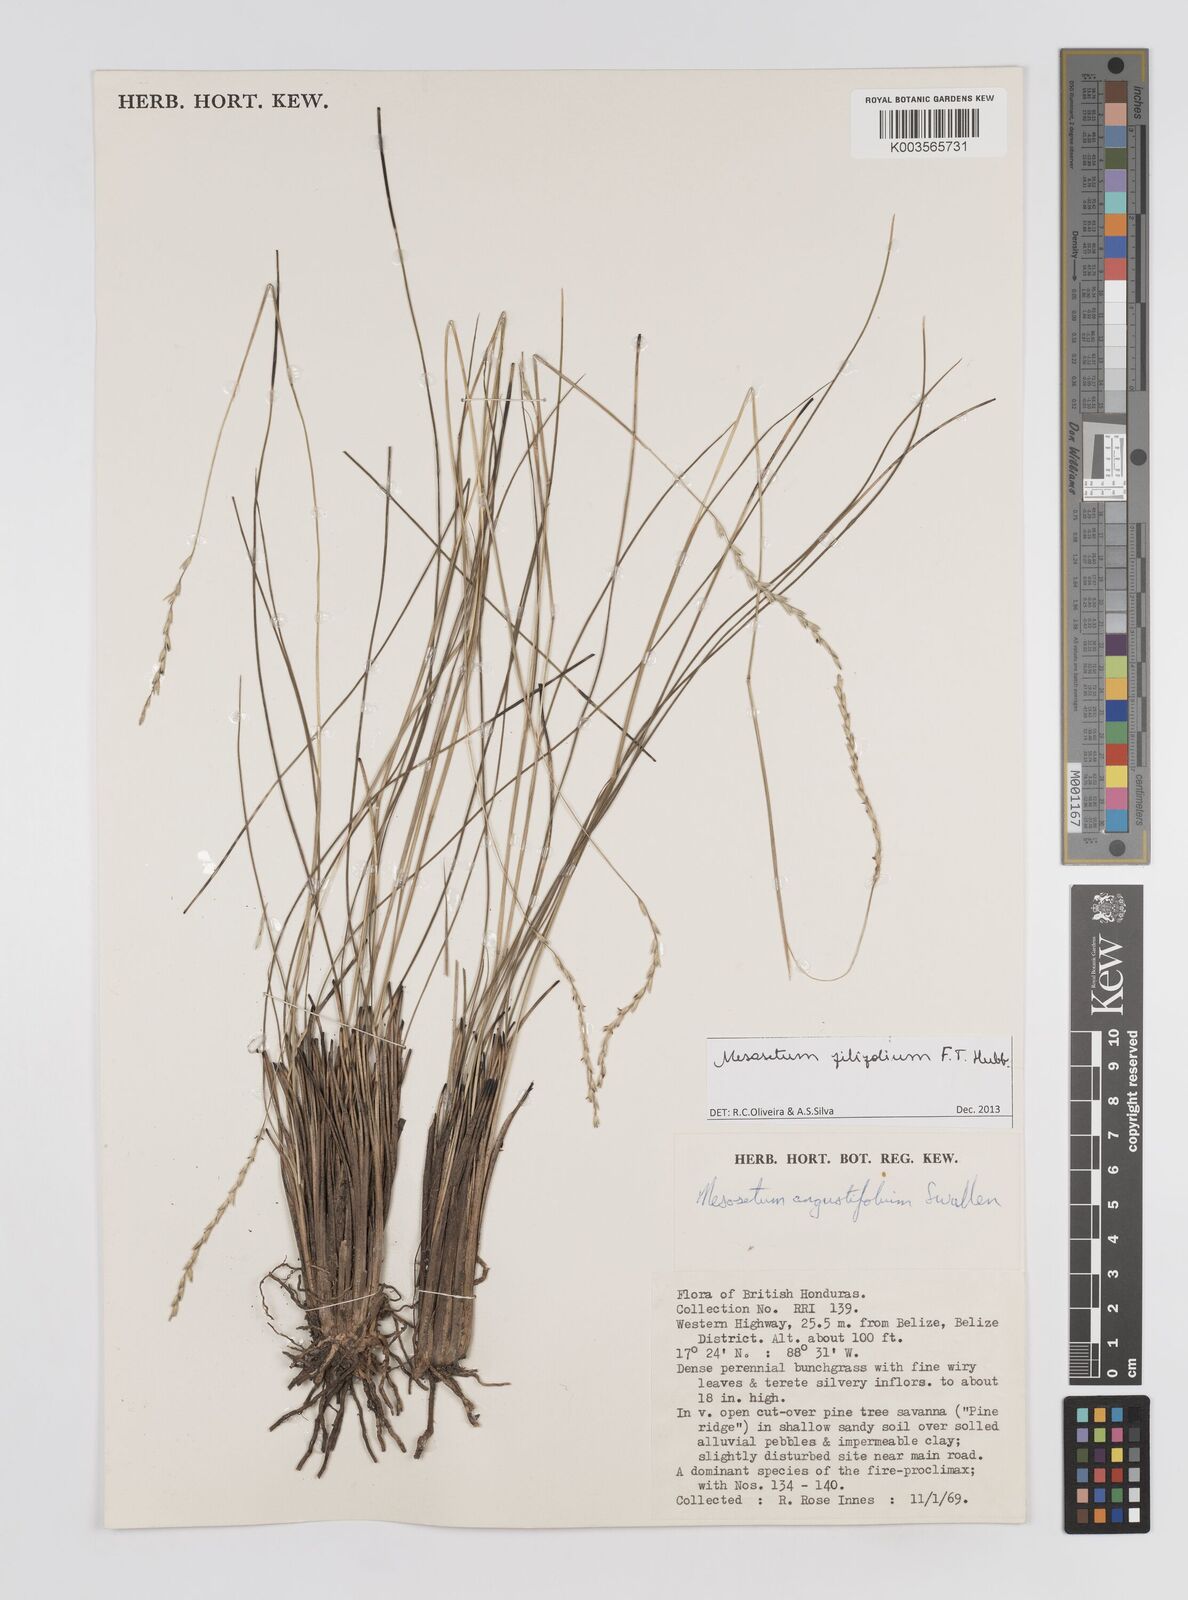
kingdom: Plantae
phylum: Tracheophyta
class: Liliopsida
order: Poales
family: Poaceae
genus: Mesosetum
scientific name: Mesosetum filifolium
